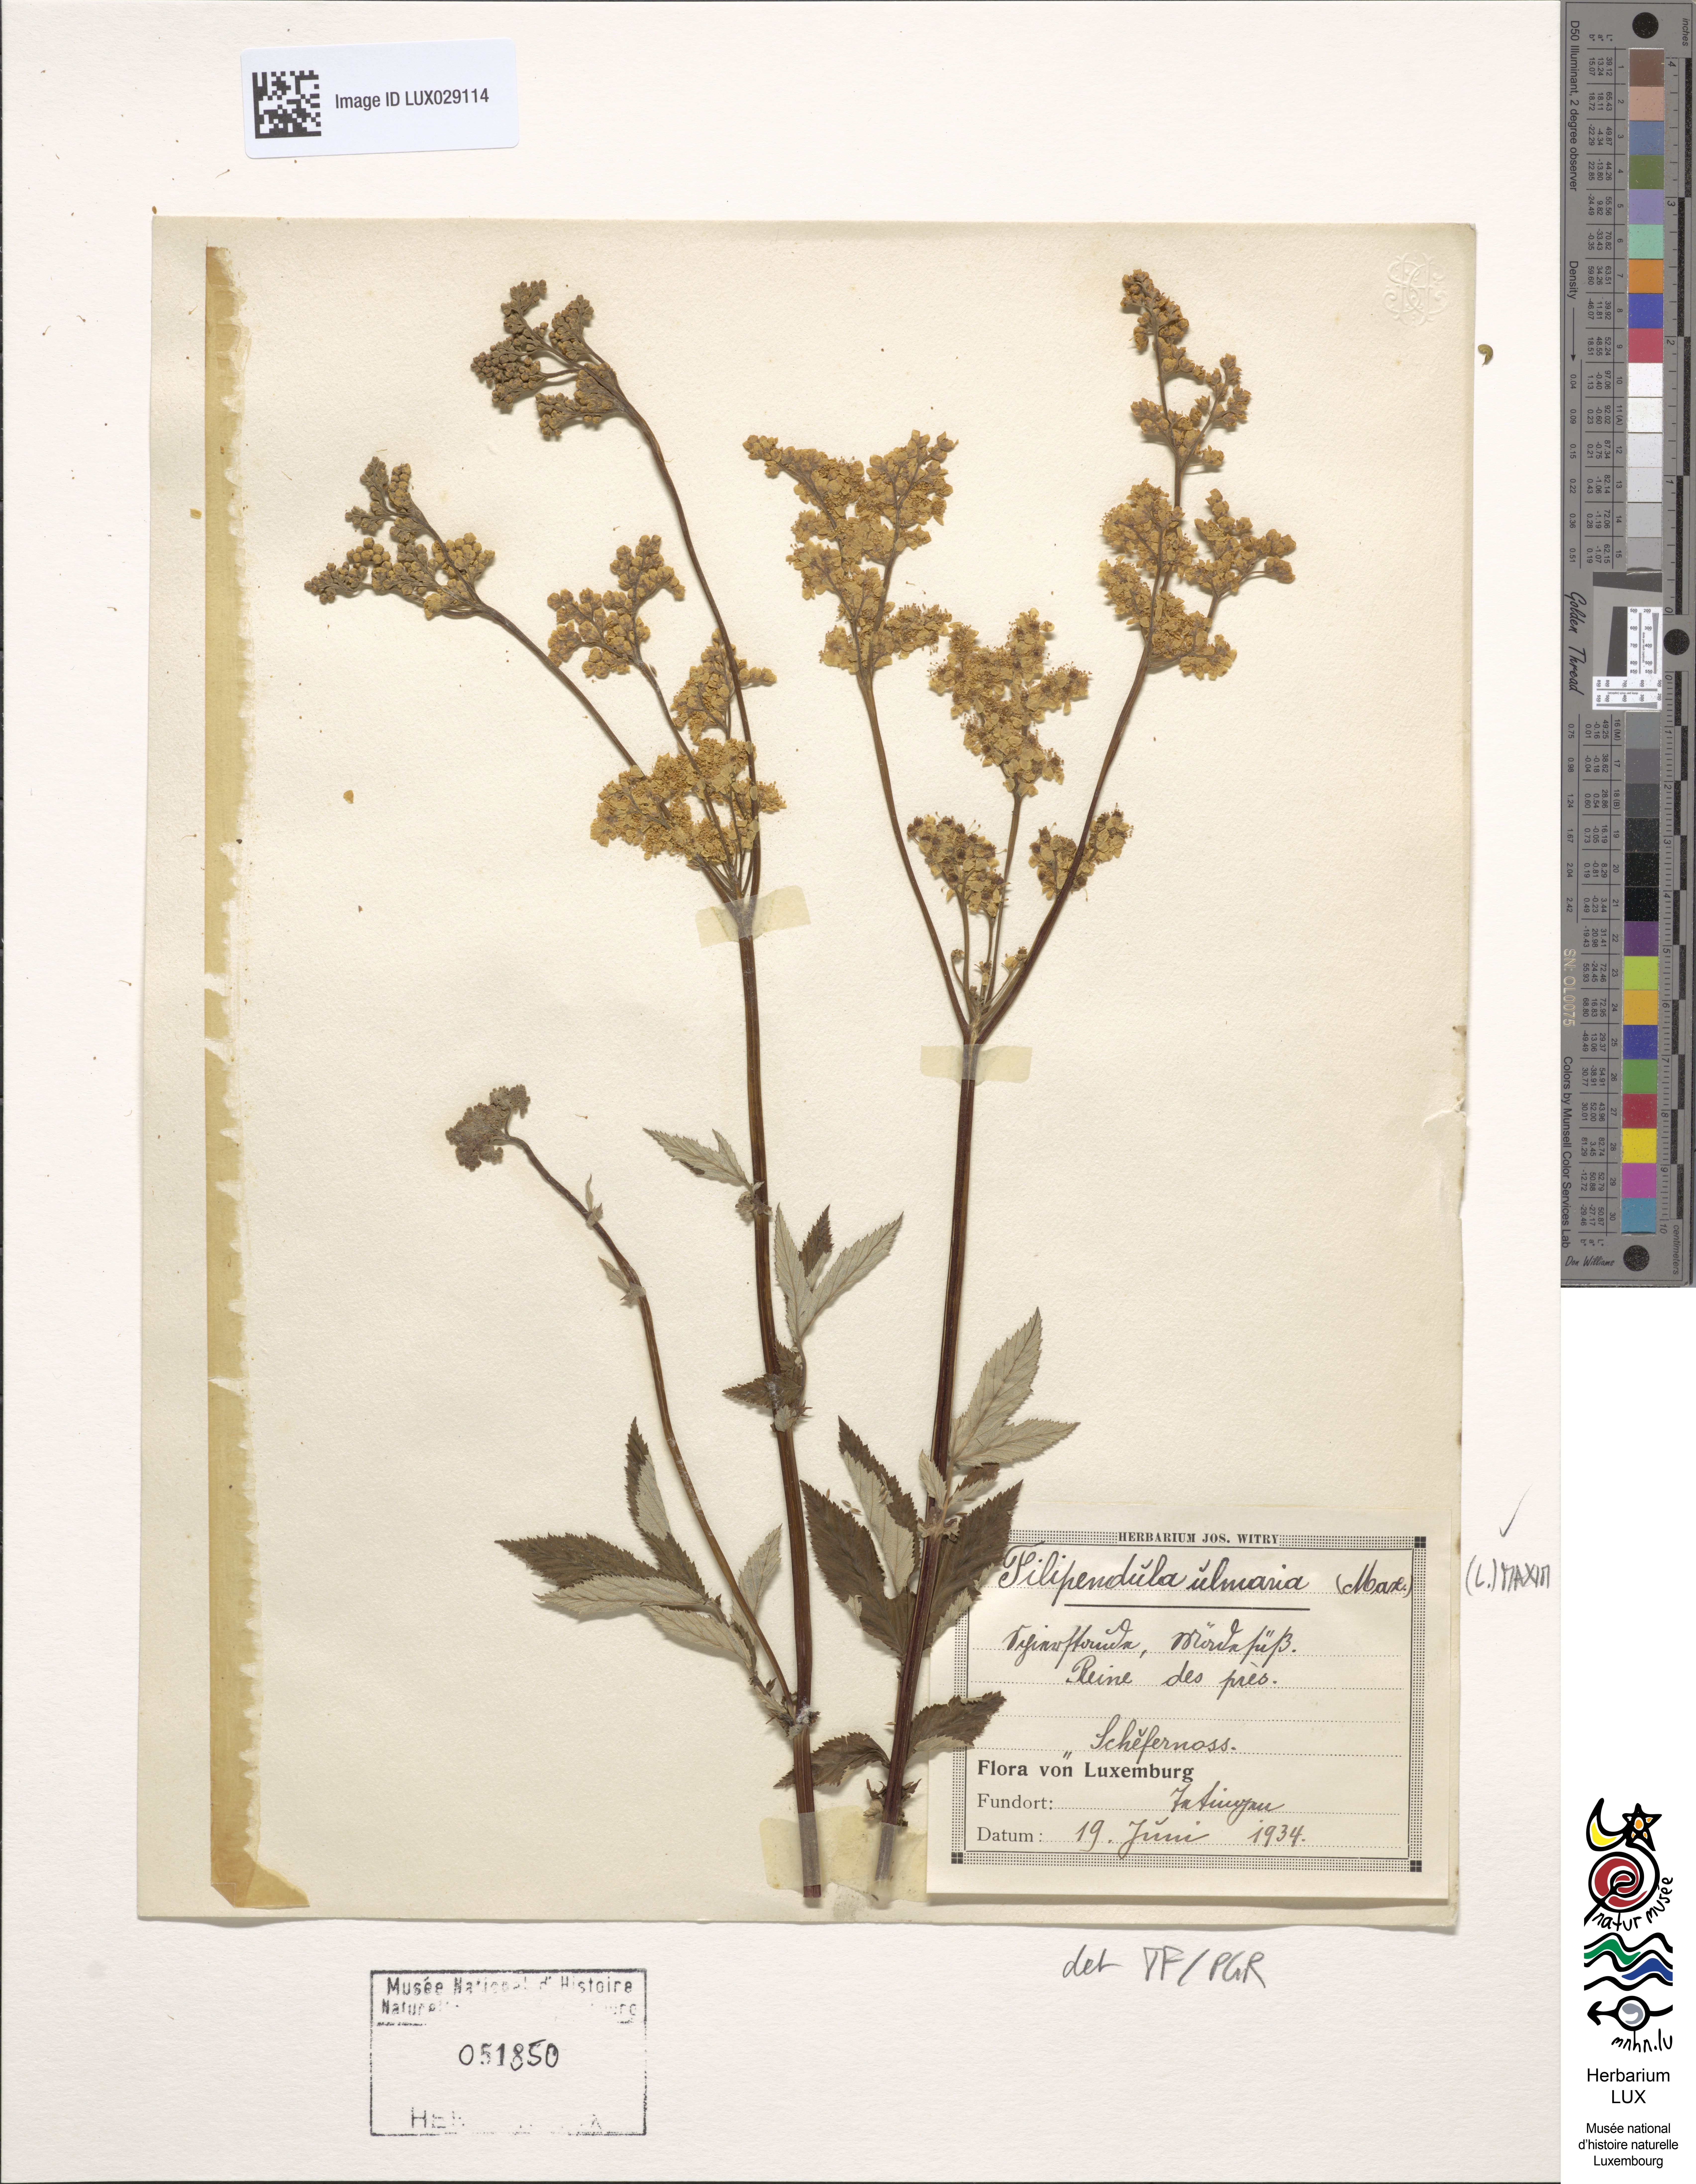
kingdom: Plantae
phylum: Tracheophyta
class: Magnoliopsida
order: Rosales
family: Rosaceae
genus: Filipendula
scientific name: Filipendula ulmaria
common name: Meadowsweet
